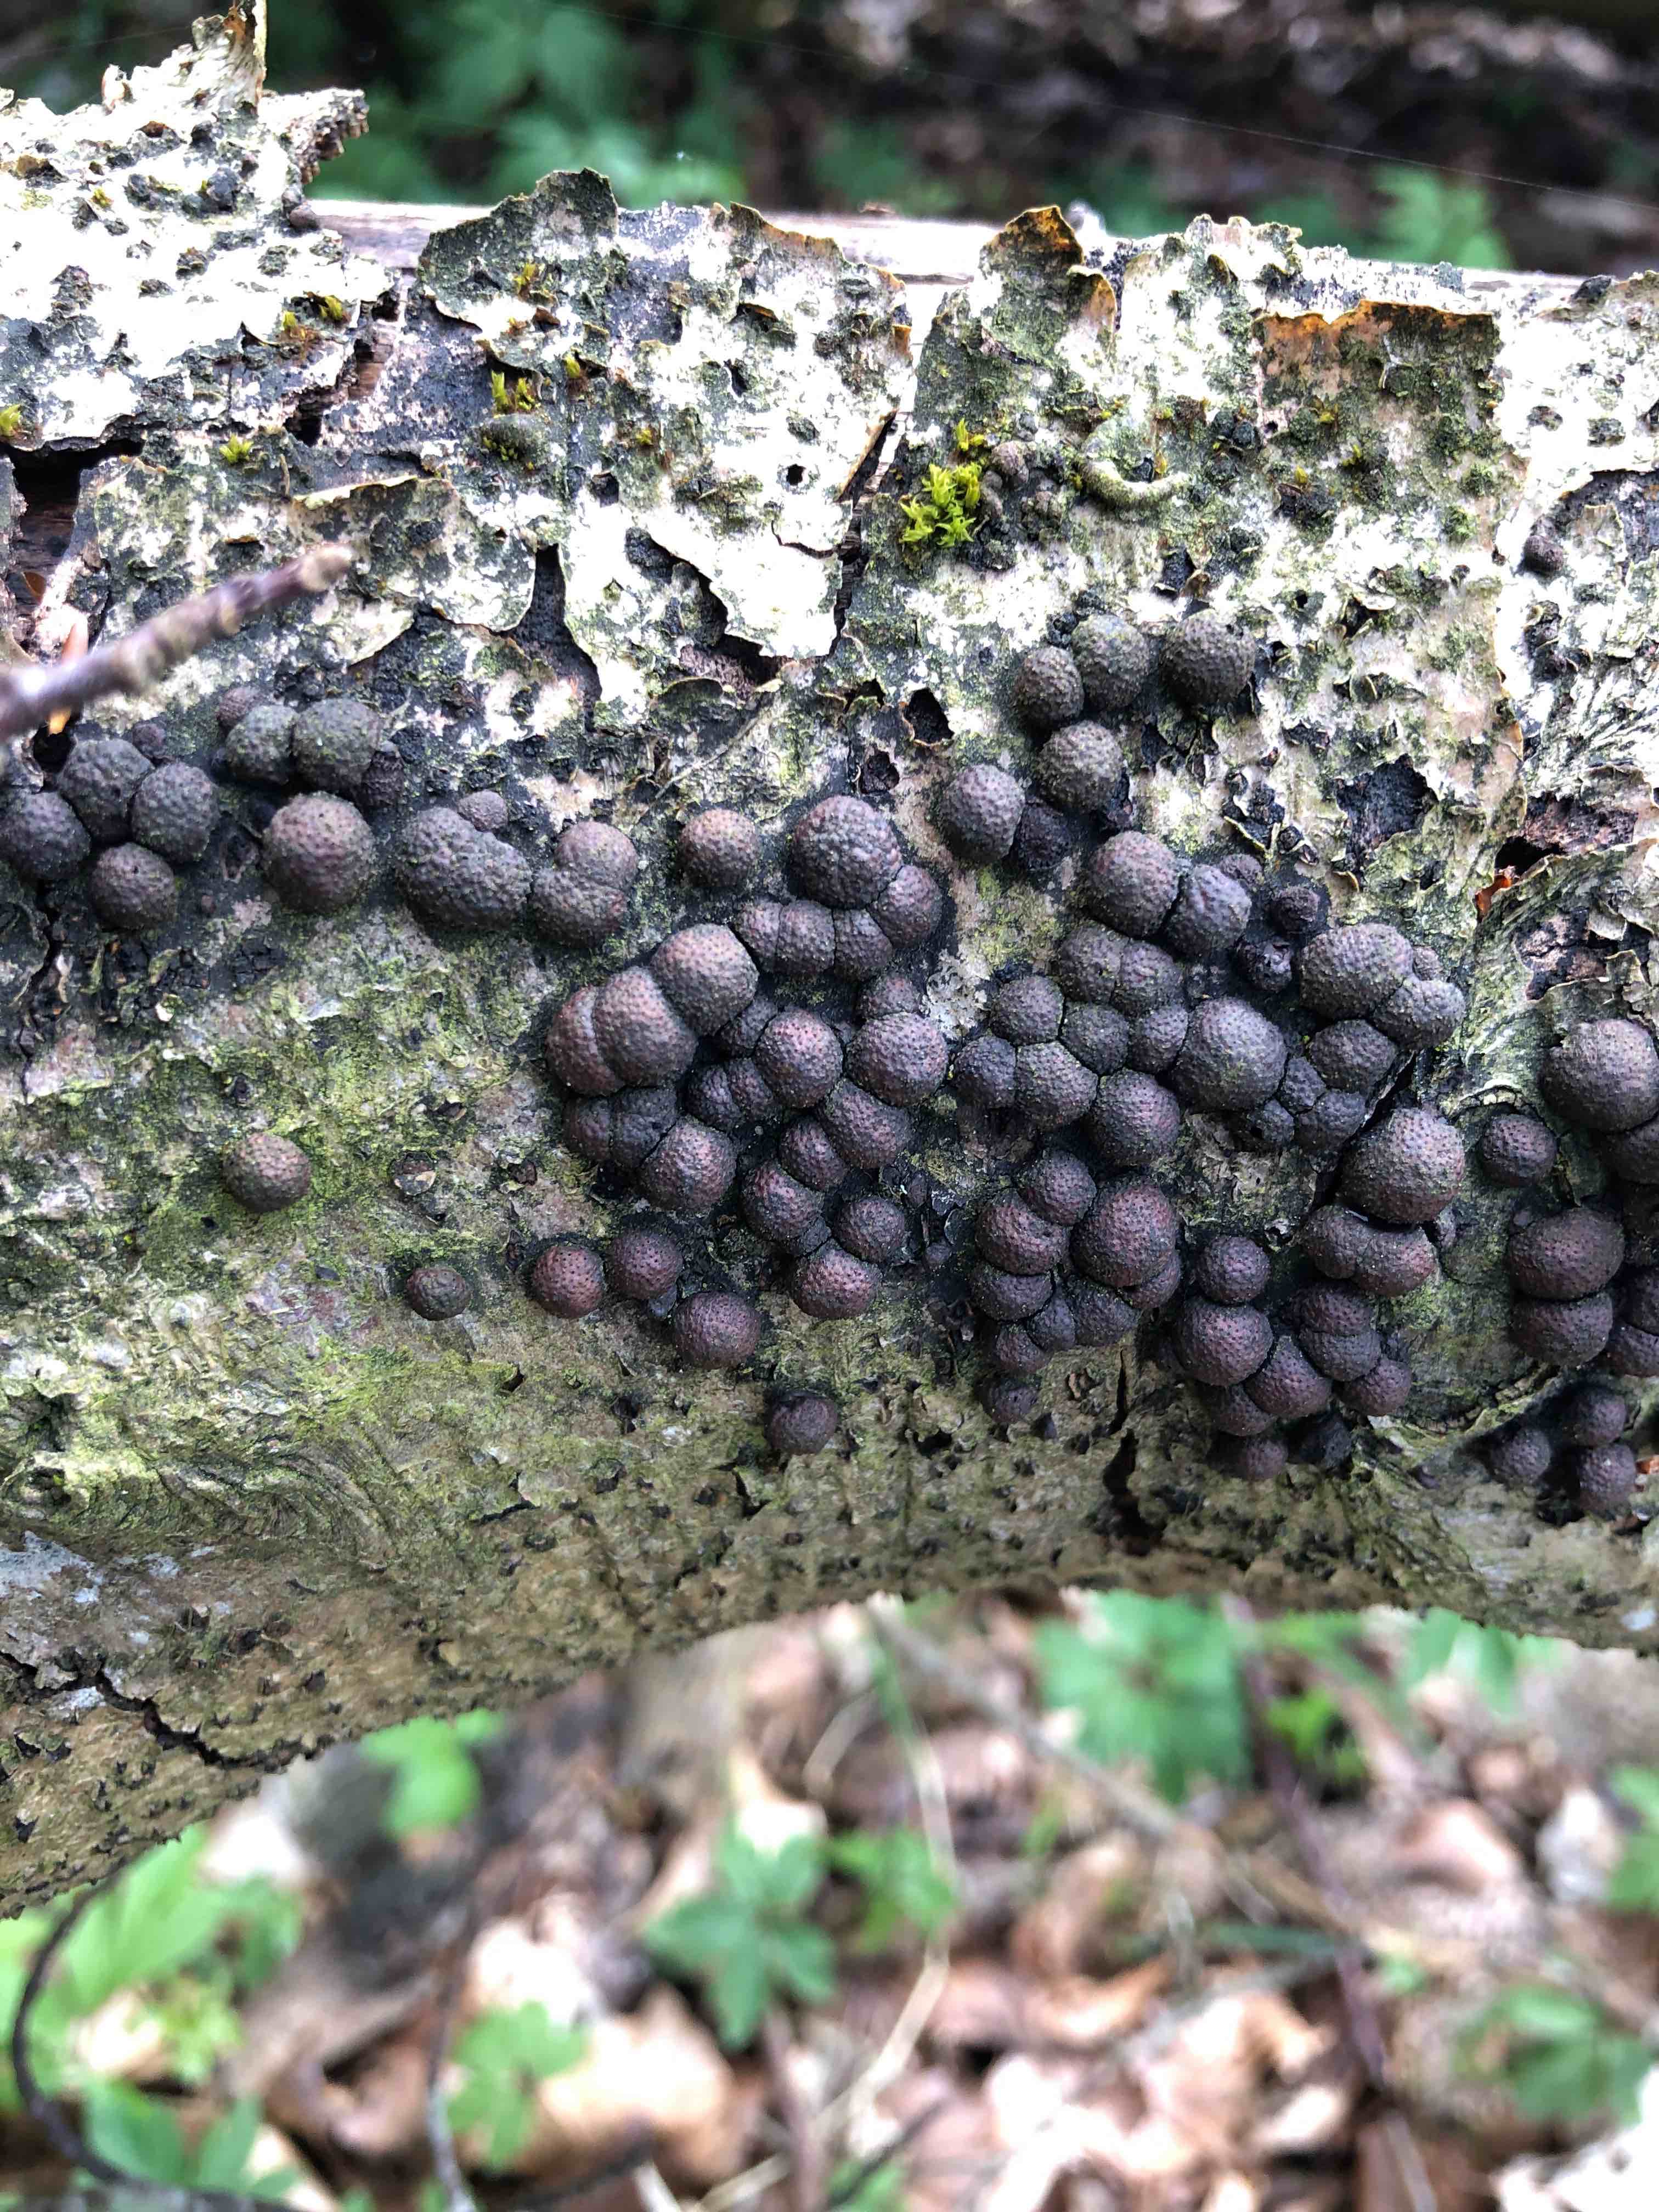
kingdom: Fungi
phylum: Ascomycota
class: Sordariomycetes
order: Xylariales
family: Hypoxylaceae
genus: Hypoxylon
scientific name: Hypoxylon fragiforme
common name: kuljordbær
